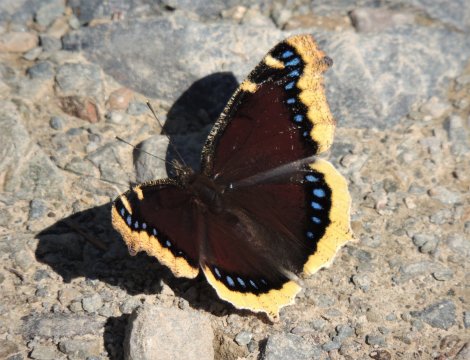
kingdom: Animalia
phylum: Arthropoda
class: Insecta
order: Lepidoptera
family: Nymphalidae
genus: Nymphalis
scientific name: Nymphalis antiopa
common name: Mourning Cloak
